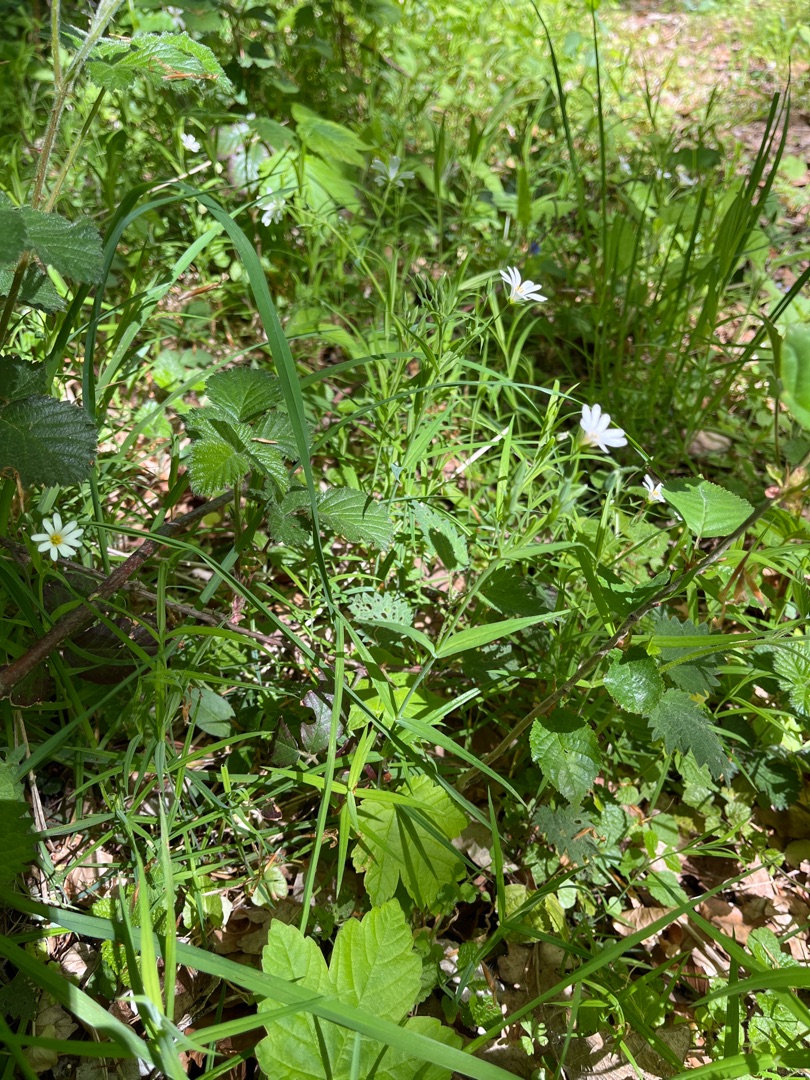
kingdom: Plantae
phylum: Tracheophyta
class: Magnoliopsida
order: Caryophyllales
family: Caryophyllaceae
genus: Rabelera
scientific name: Rabelera holostea
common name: Stor fladstjerne
